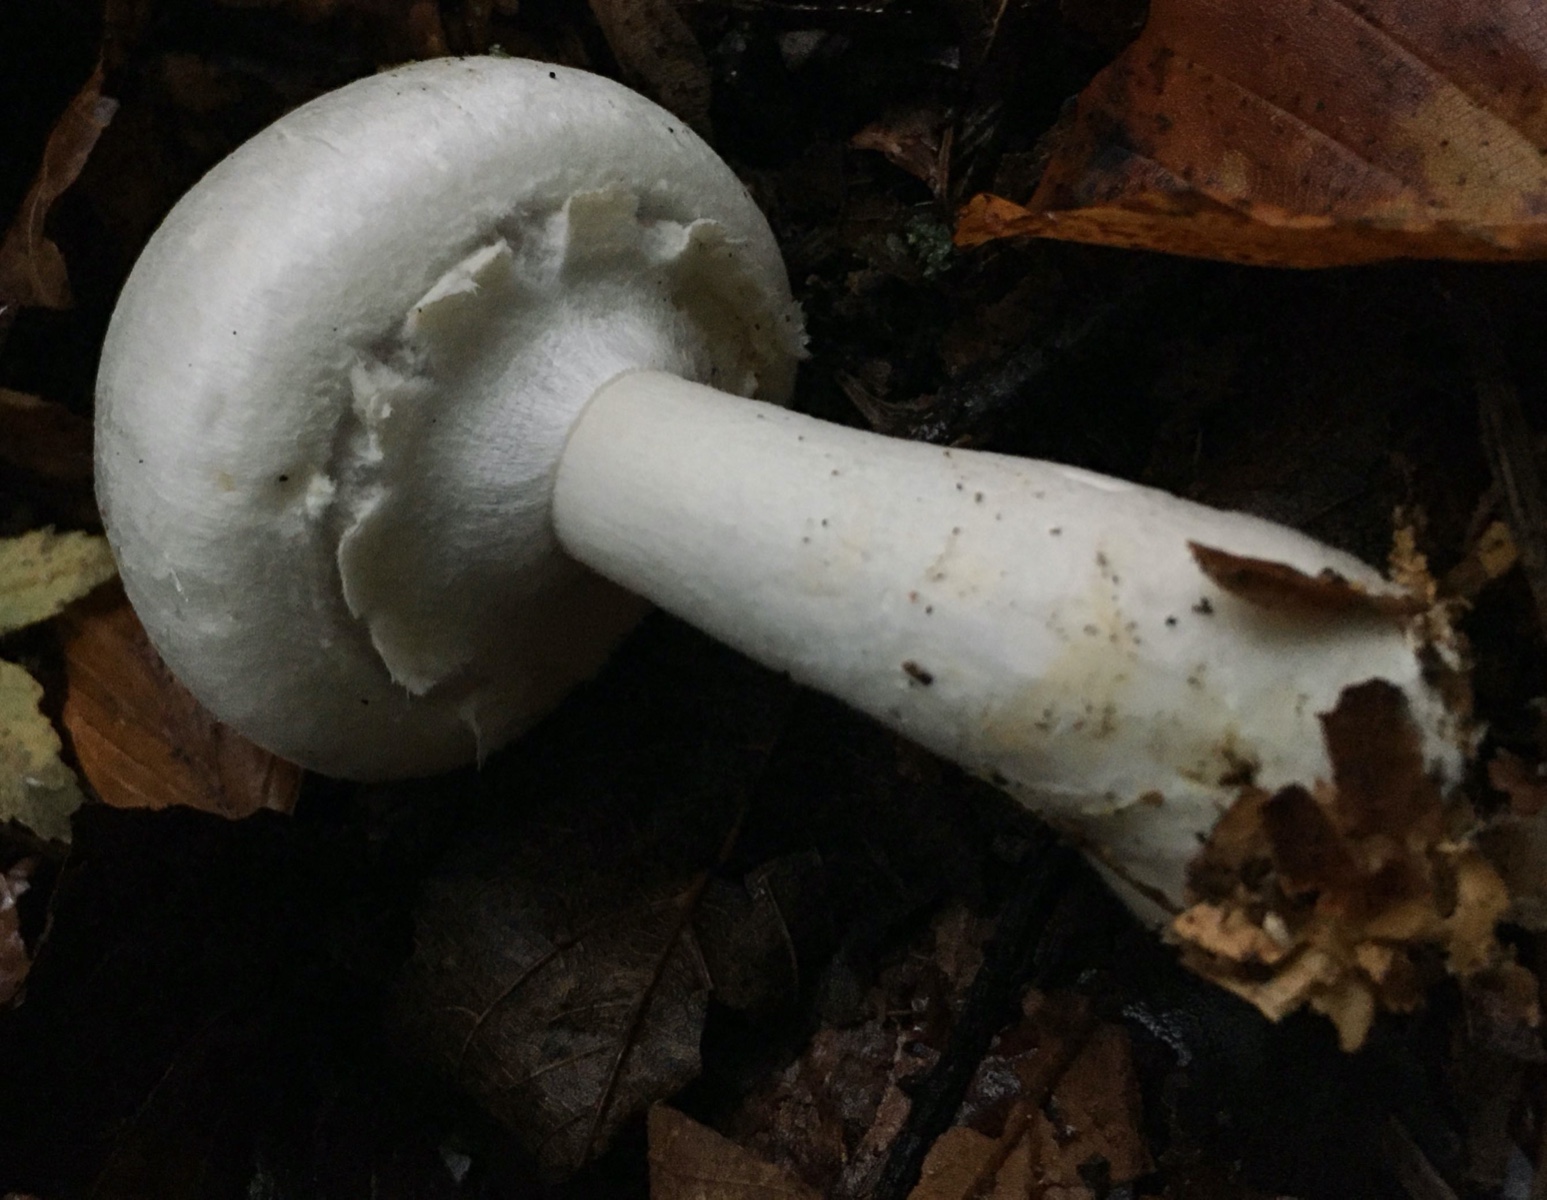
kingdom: Fungi
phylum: Basidiomycota
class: Agaricomycetes
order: Agaricales
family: Agaricaceae
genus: Agaricus
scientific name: Agaricus sylvicola
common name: gulhvid champignon
